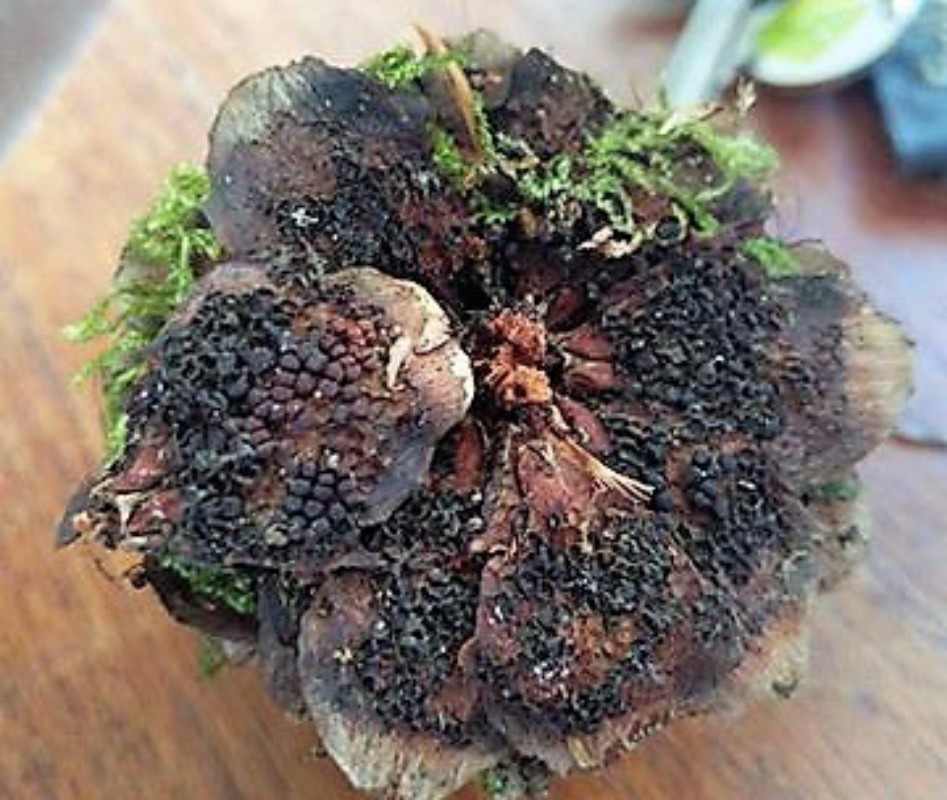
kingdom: Fungi
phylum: Basidiomycota
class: Pucciniomycetes
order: Pucciniales
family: Pucciniastraceae
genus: Thekopsora
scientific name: Thekopsora areolata
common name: grankogle-nålerust
